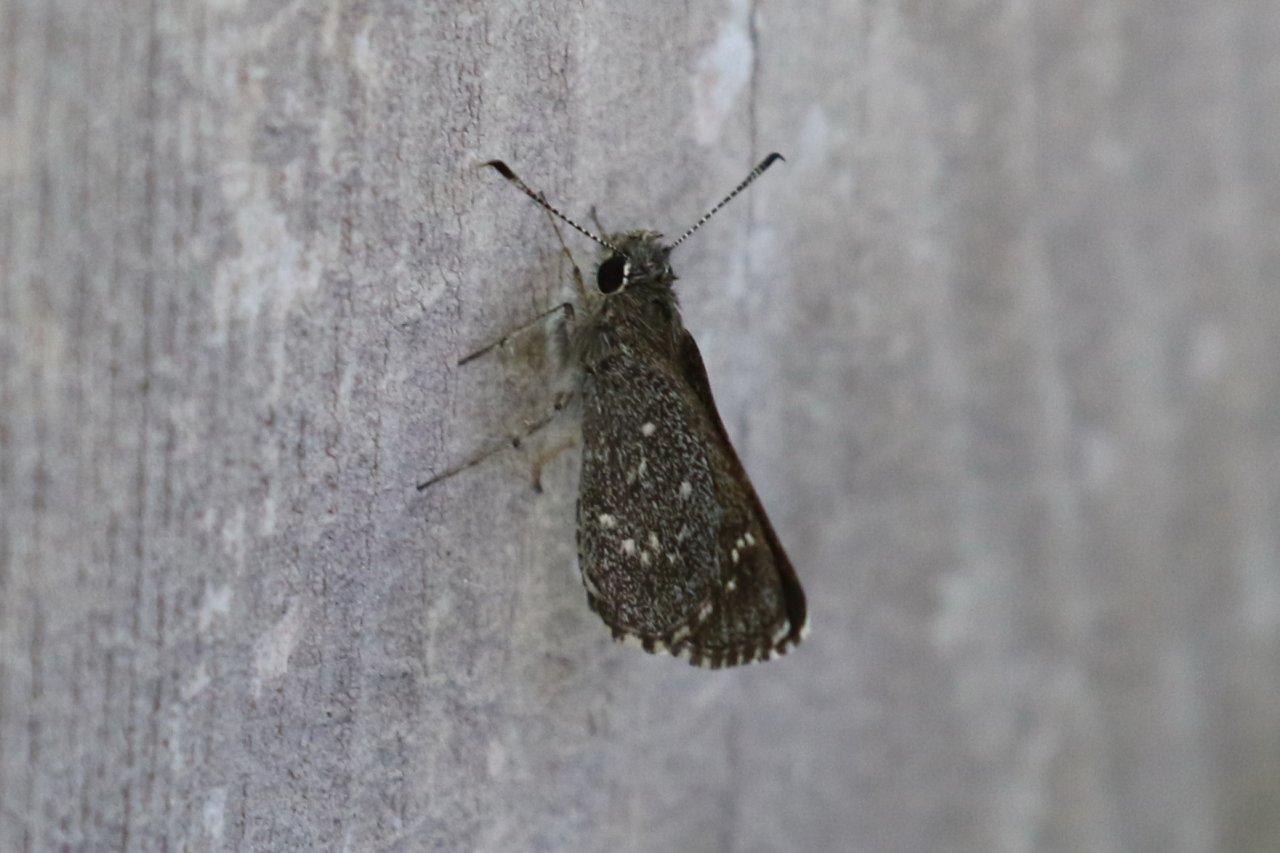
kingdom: Animalia
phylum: Arthropoda
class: Insecta
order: Lepidoptera
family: Hesperiidae
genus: Mastor
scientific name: Mastor celia
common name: Celia's Roadside-Skipper
